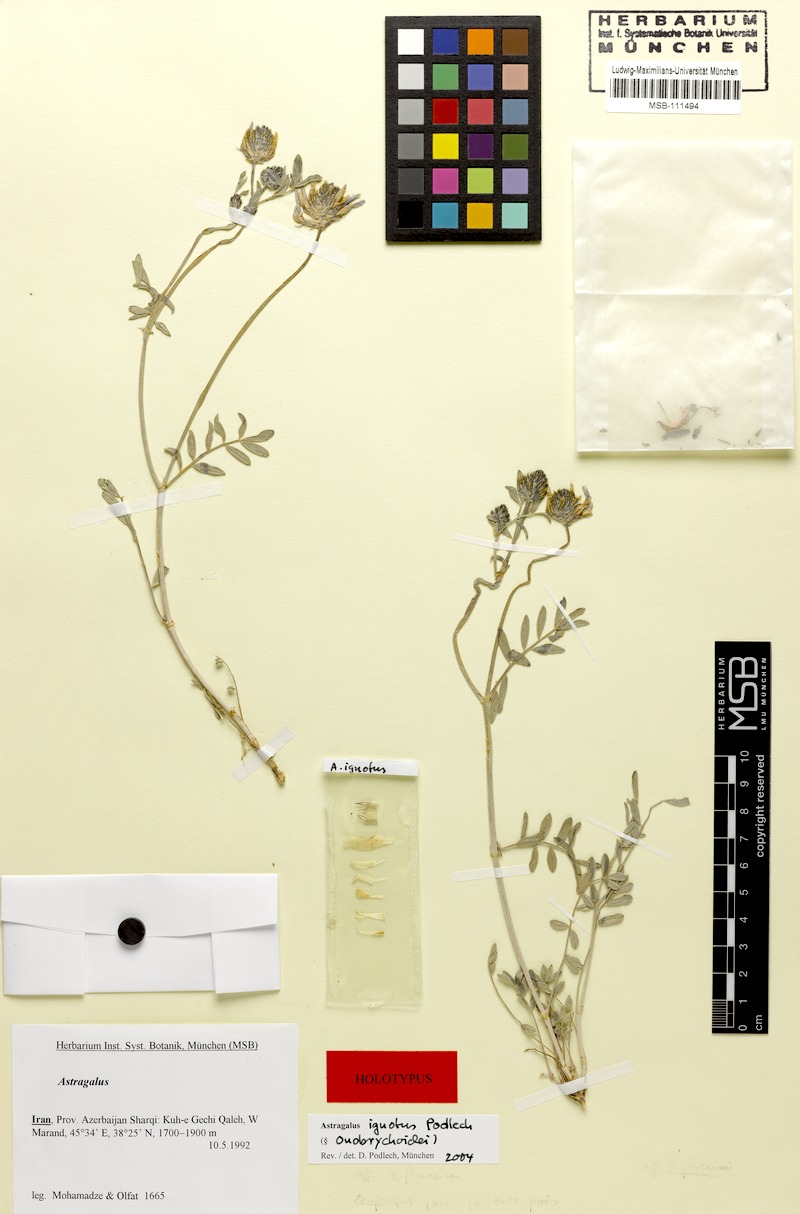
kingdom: Plantae
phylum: Tracheophyta
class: Magnoliopsida
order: Fabales
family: Fabaceae
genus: Astragalus
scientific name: Astragalus ignotus
